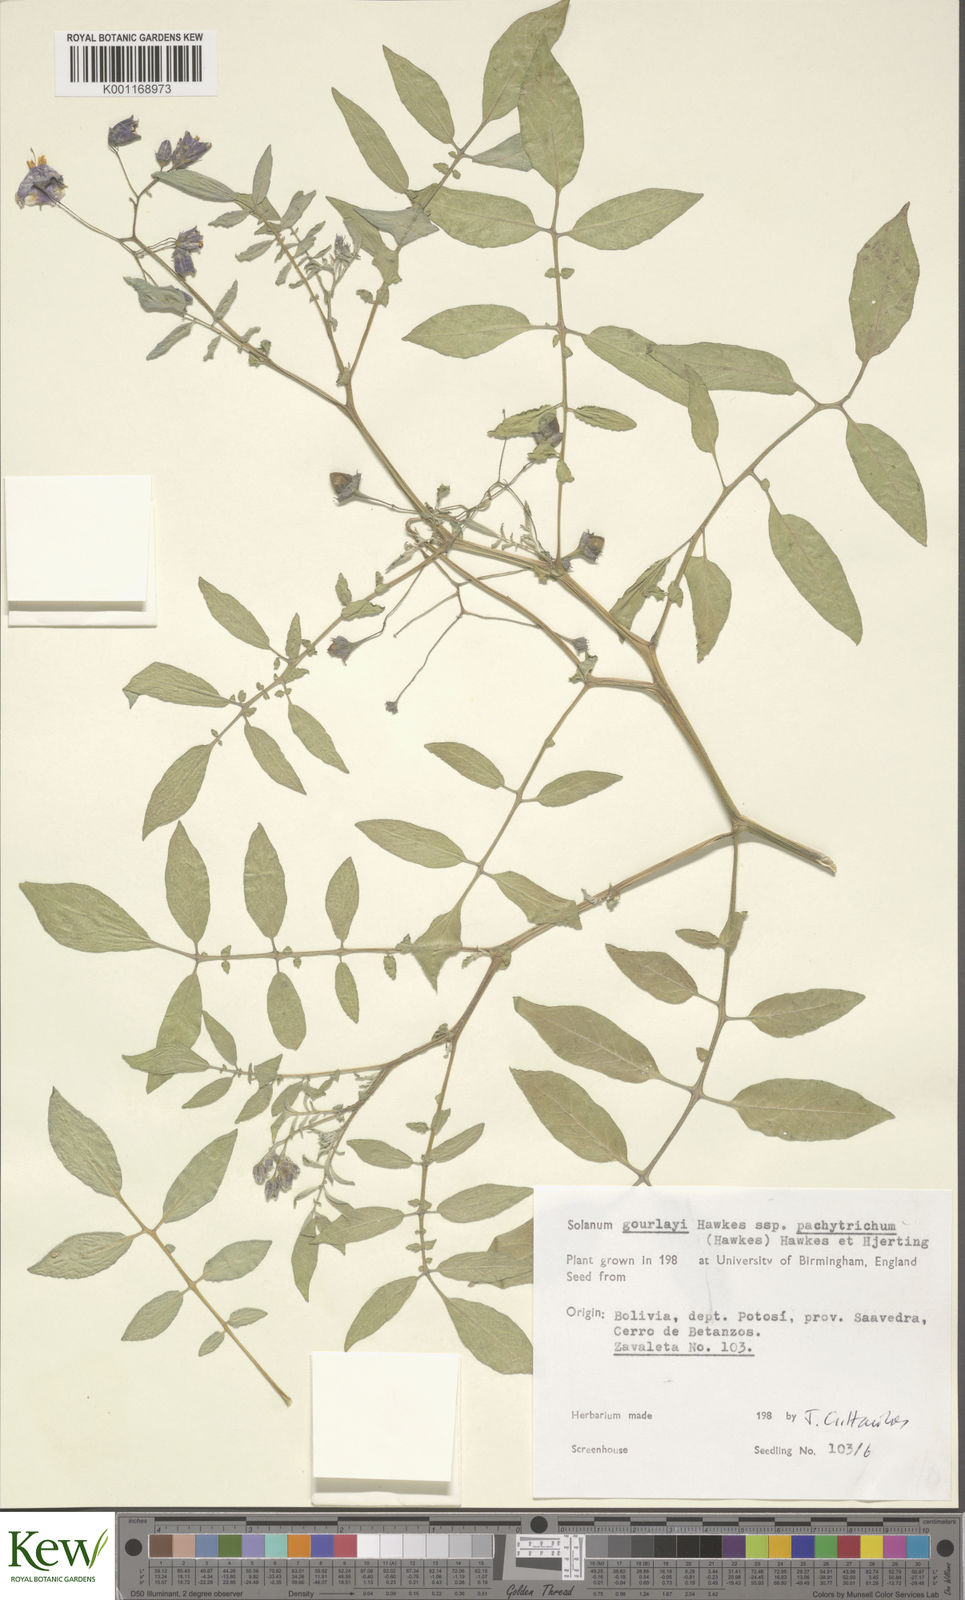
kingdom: Plantae
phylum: Tracheophyta
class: Magnoliopsida
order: Solanales
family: Solanaceae
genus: Solanum
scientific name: Solanum brevicaule
